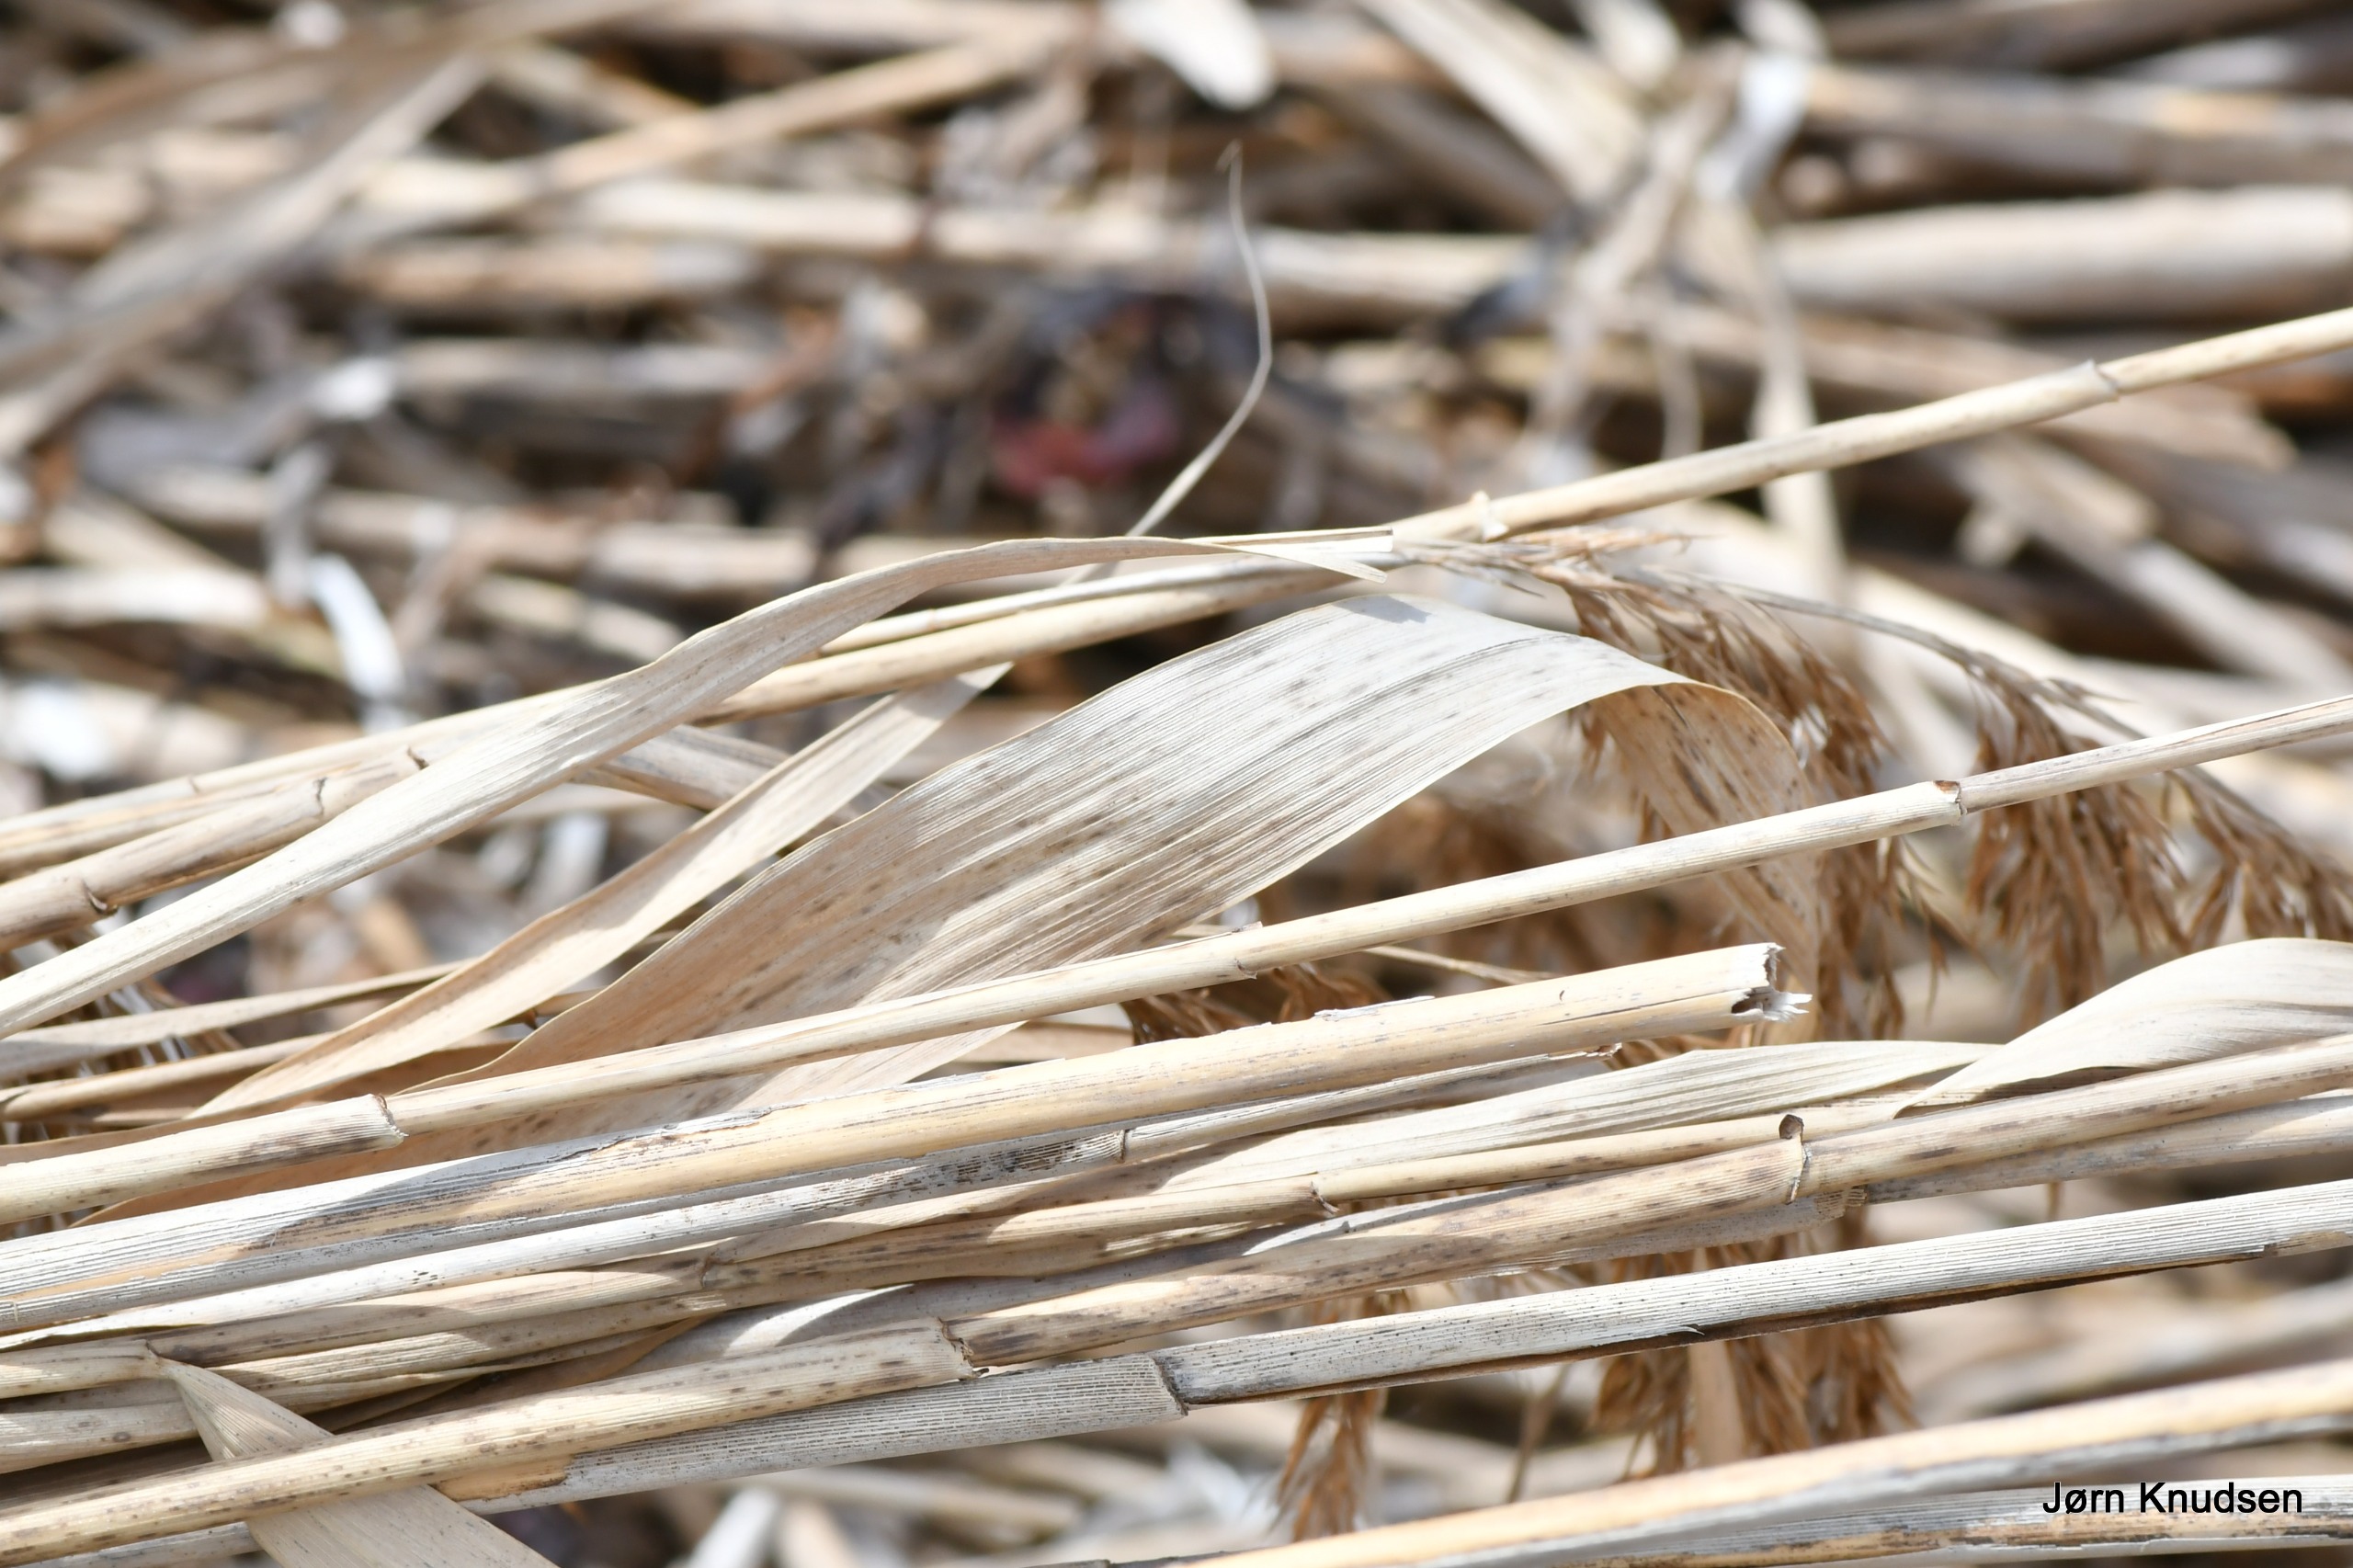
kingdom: Plantae
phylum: Tracheophyta
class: Liliopsida
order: Poales
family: Poaceae
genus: Phragmites
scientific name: Phragmites australis
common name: Tagrør
